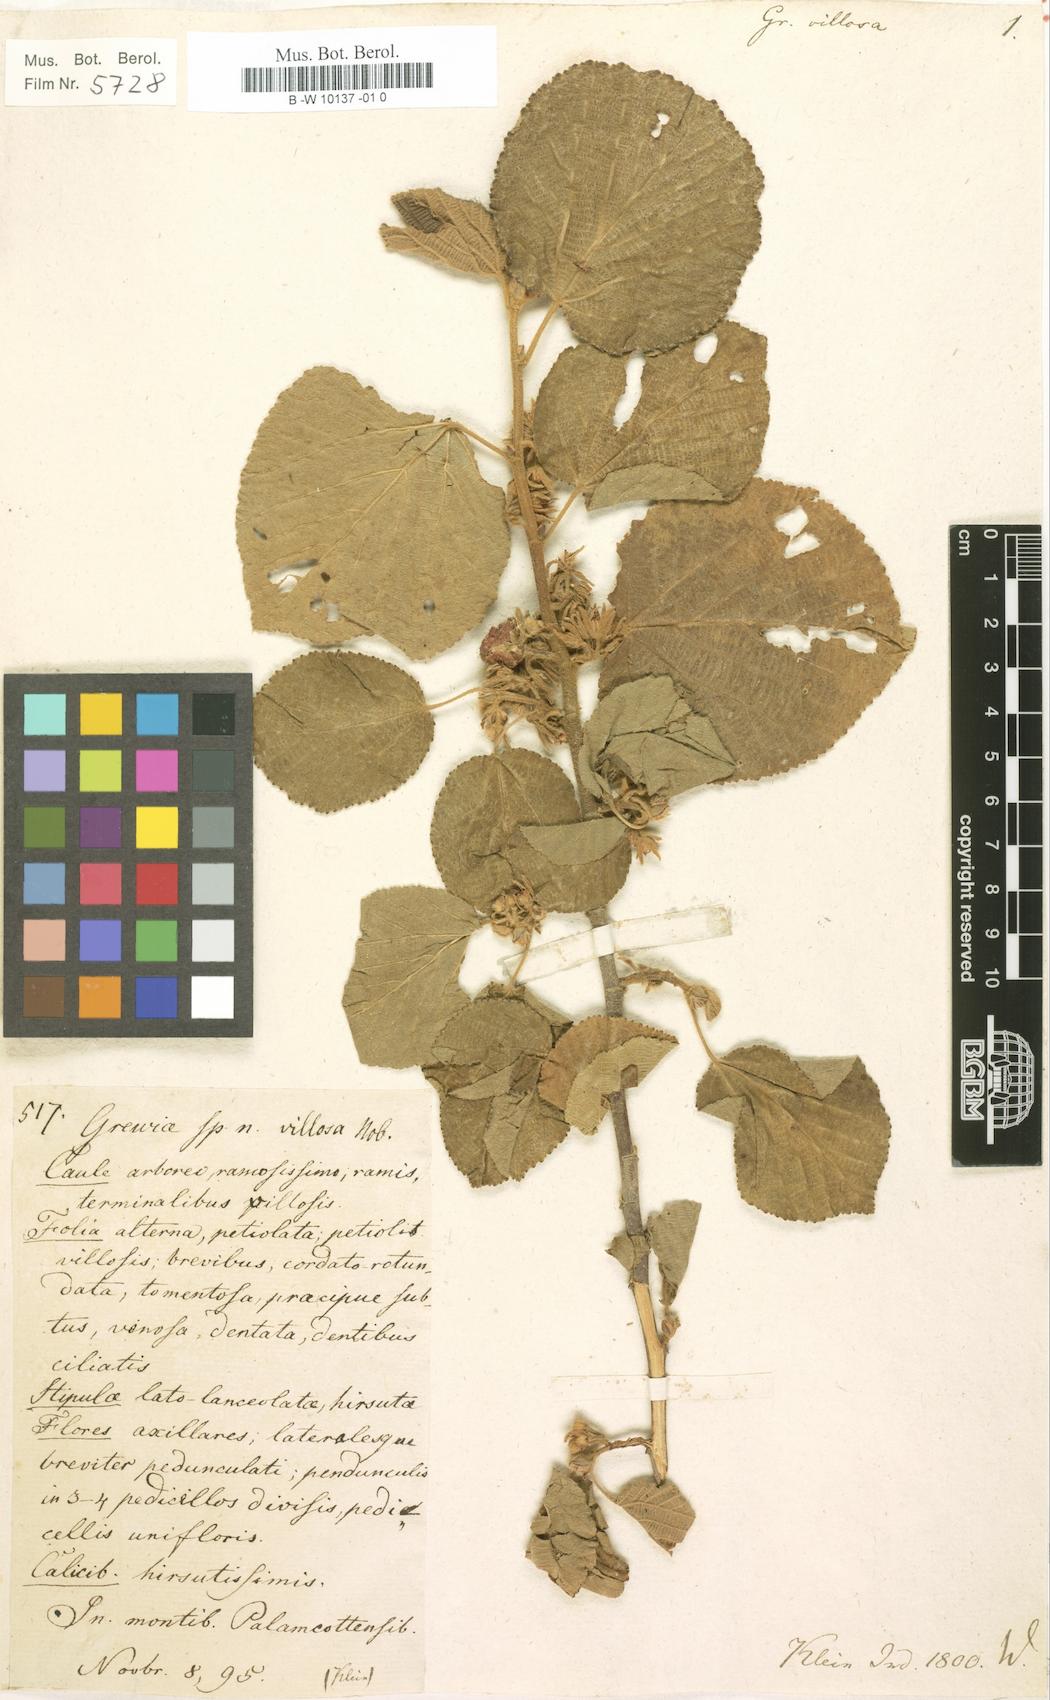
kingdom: Plantae
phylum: Tracheophyta
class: Magnoliopsida
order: Malvales
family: Malvaceae
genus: Grewia
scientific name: Grewia villosa
